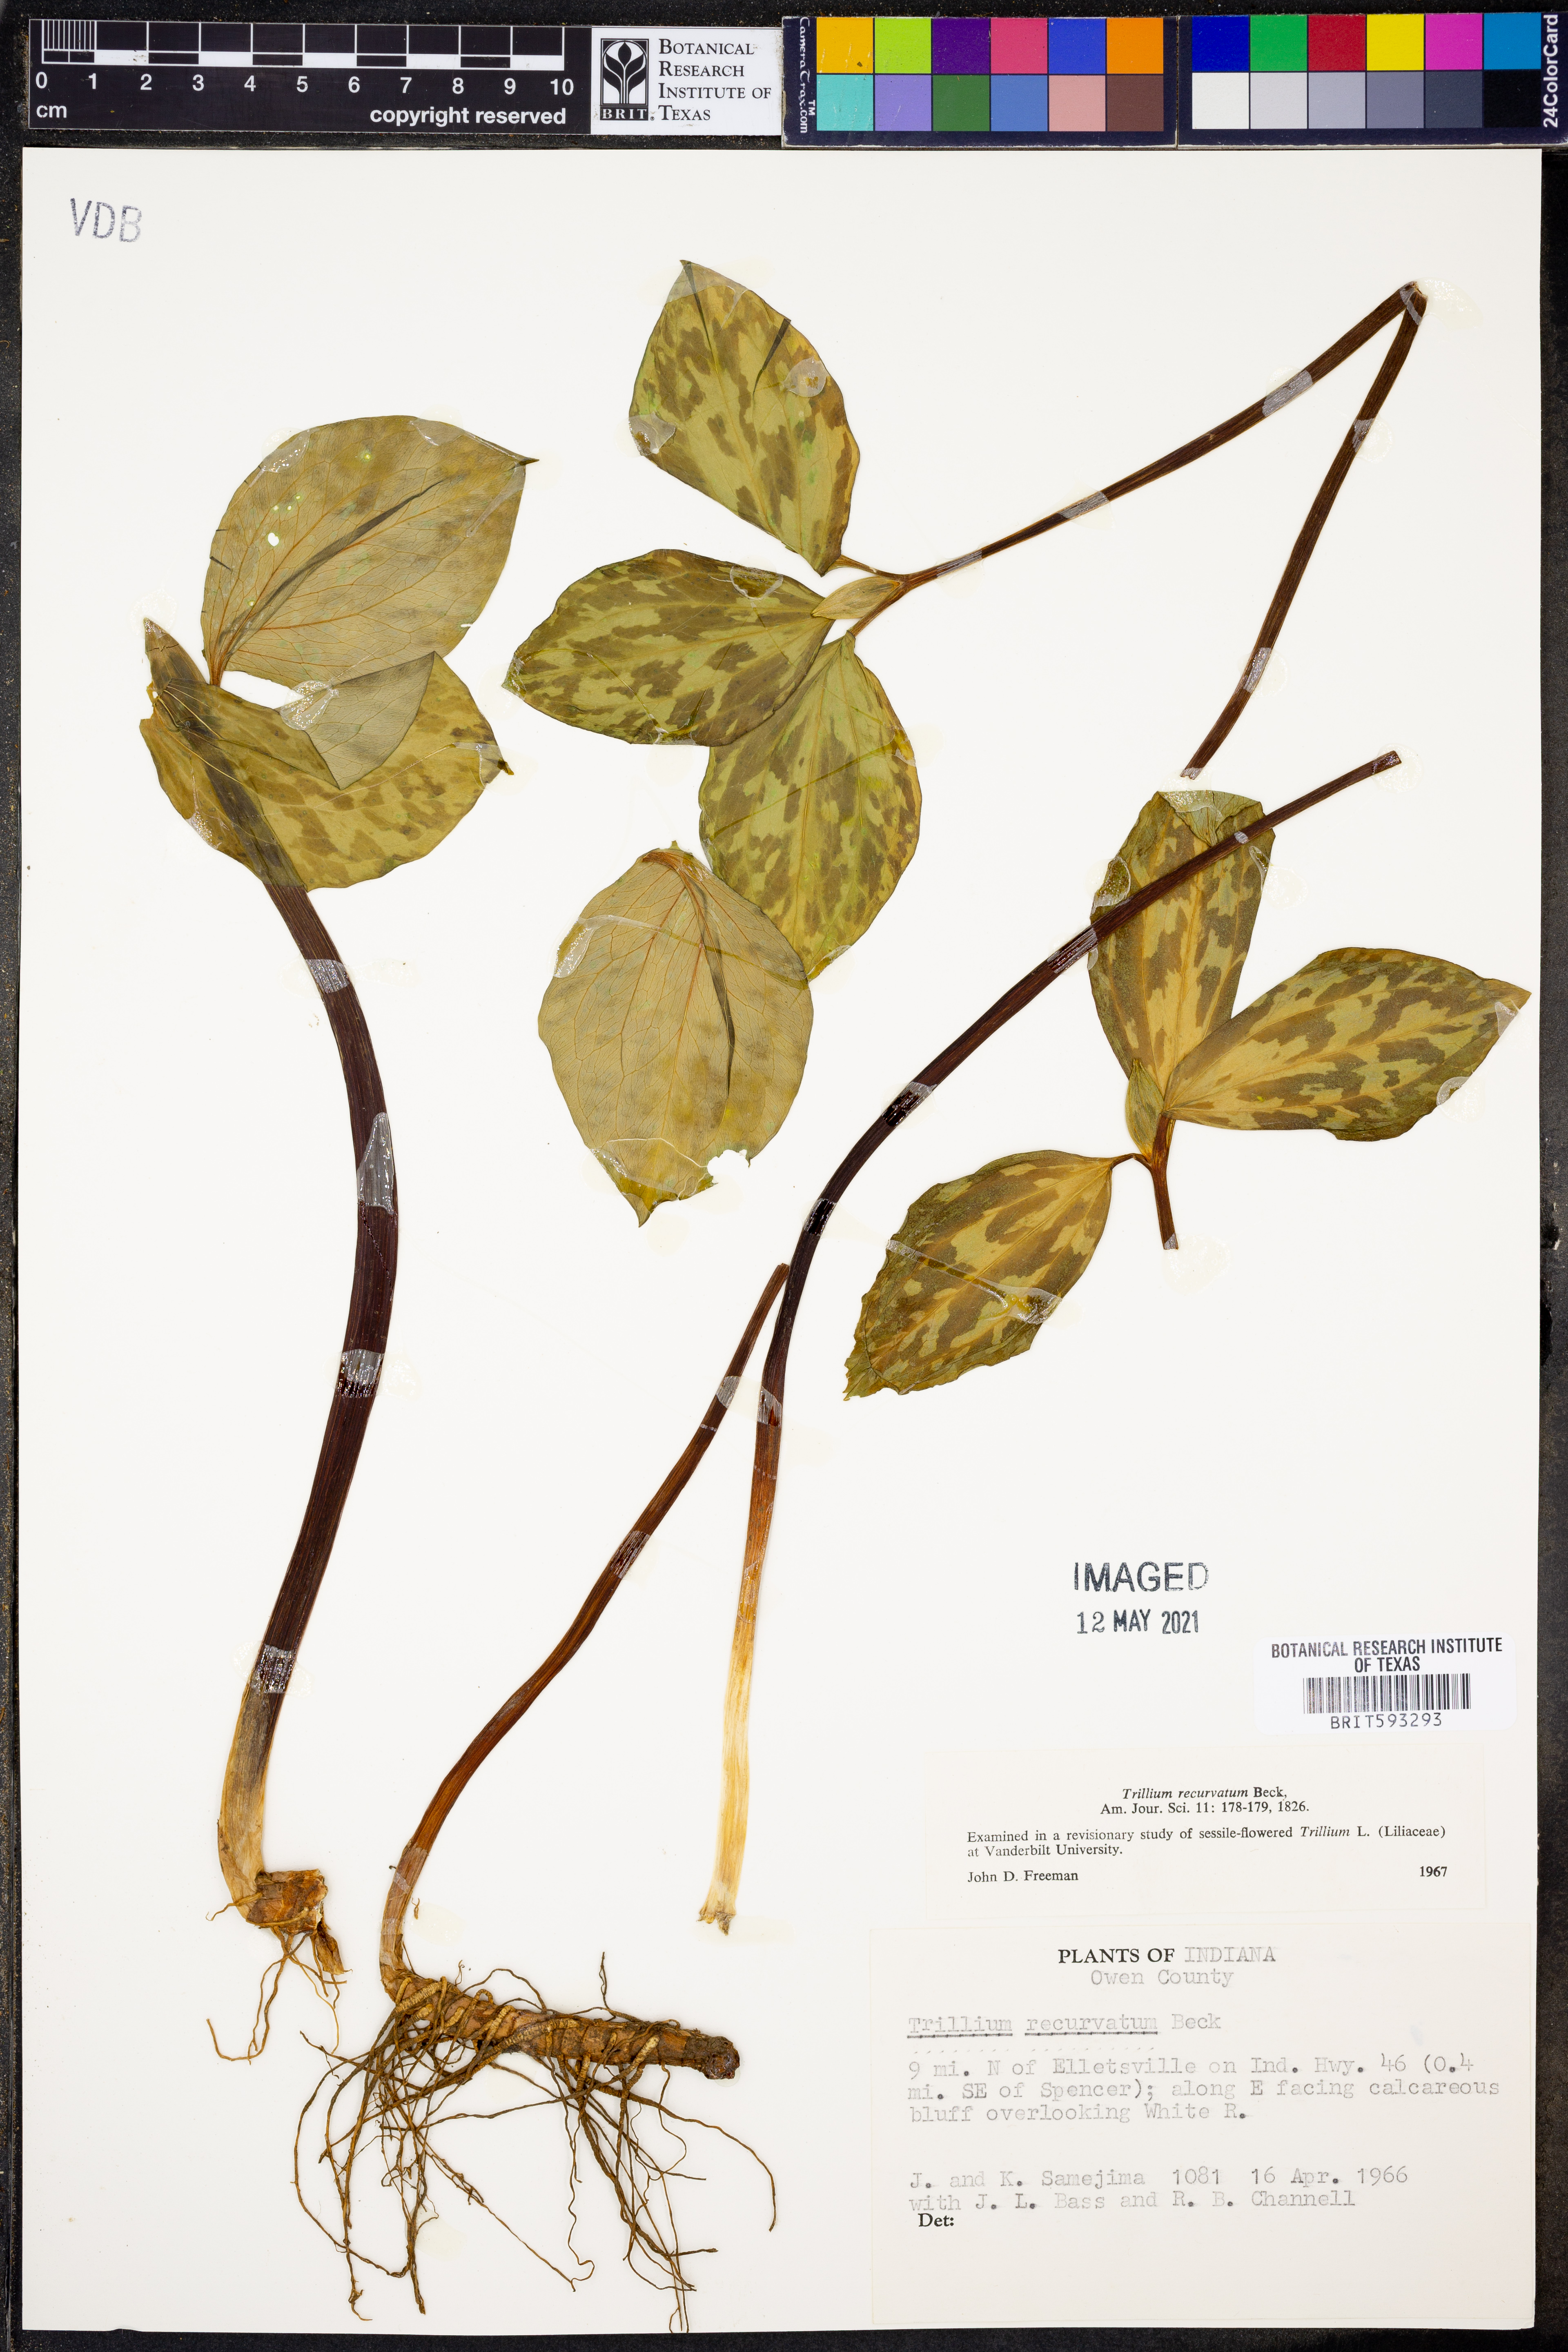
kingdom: Plantae
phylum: Tracheophyta
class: Liliopsida
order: Liliales
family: Melanthiaceae
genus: Trillium
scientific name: Trillium recurvatum
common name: Bloody butcher
